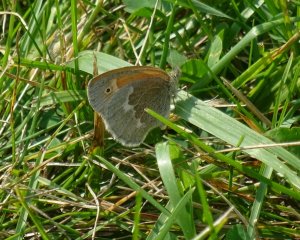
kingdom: Animalia
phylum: Arthropoda
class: Insecta
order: Lepidoptera
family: Nymphalidae
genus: Coenonympha
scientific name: Coenonympha tullia
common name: Large Heath
